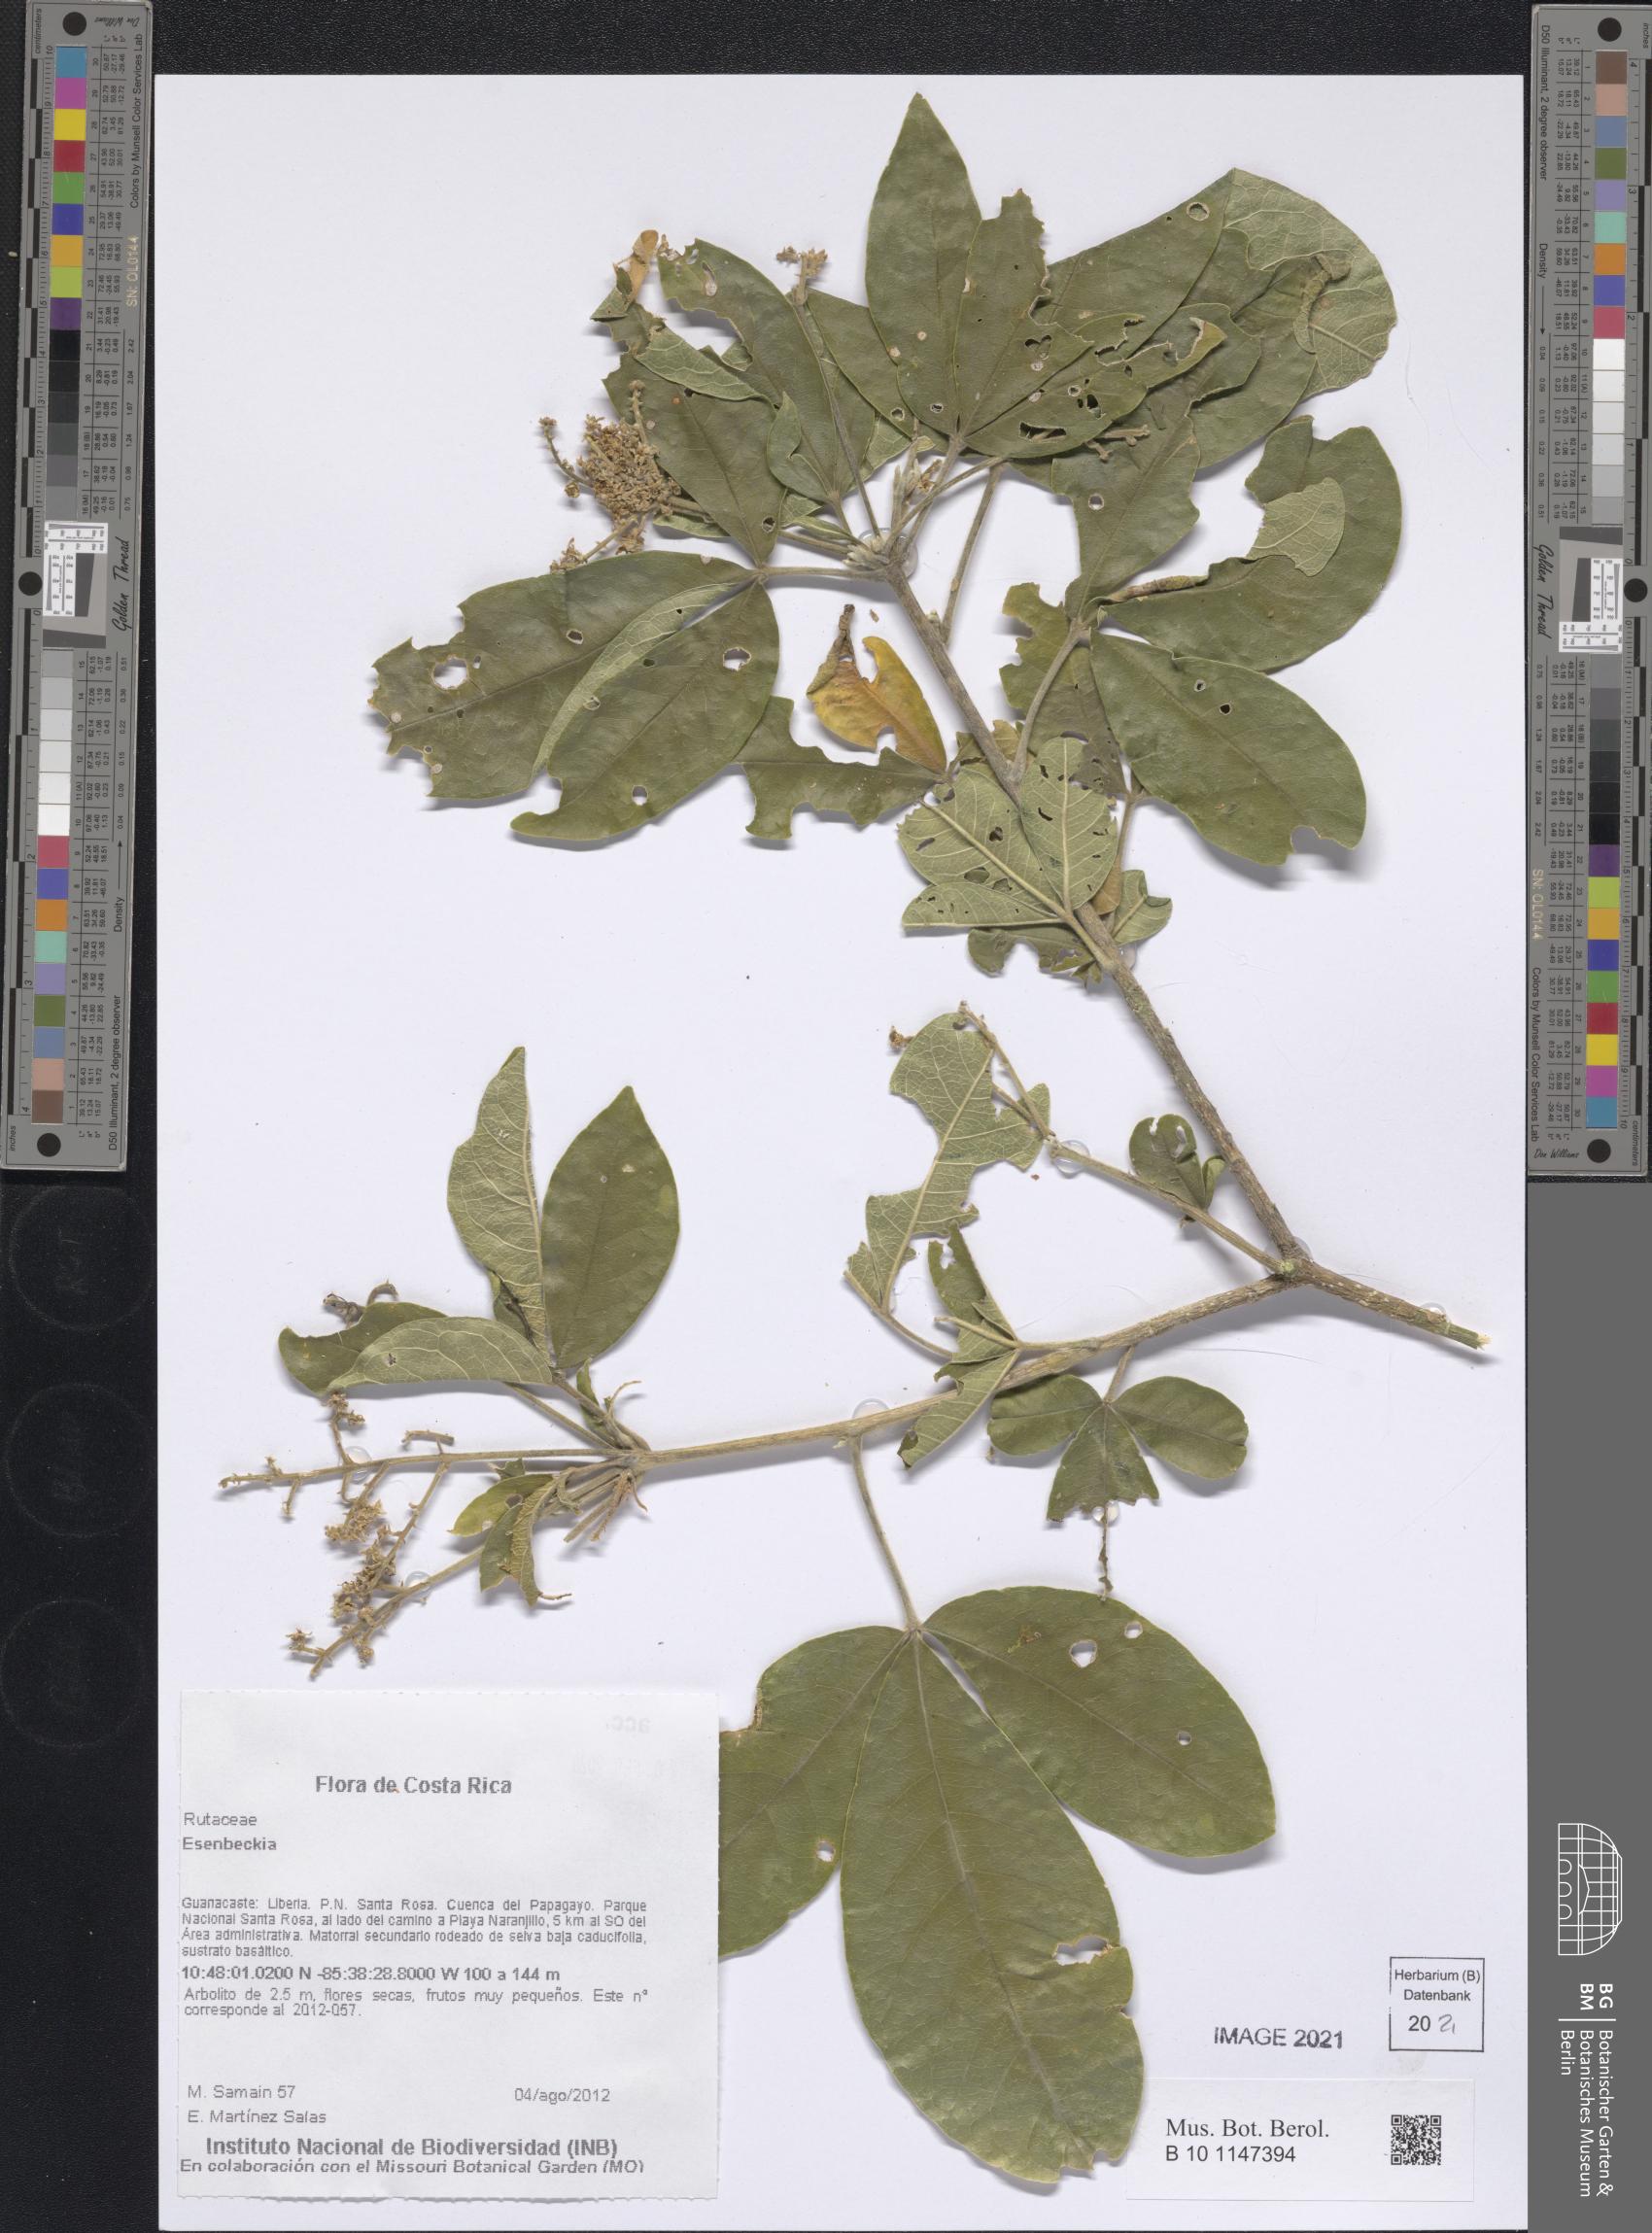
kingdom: Plantae
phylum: Tracheophyta
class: Magnoliopsida
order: Sapindales
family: Rutaceae
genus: Esenbeckia
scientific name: Esenbeckia
